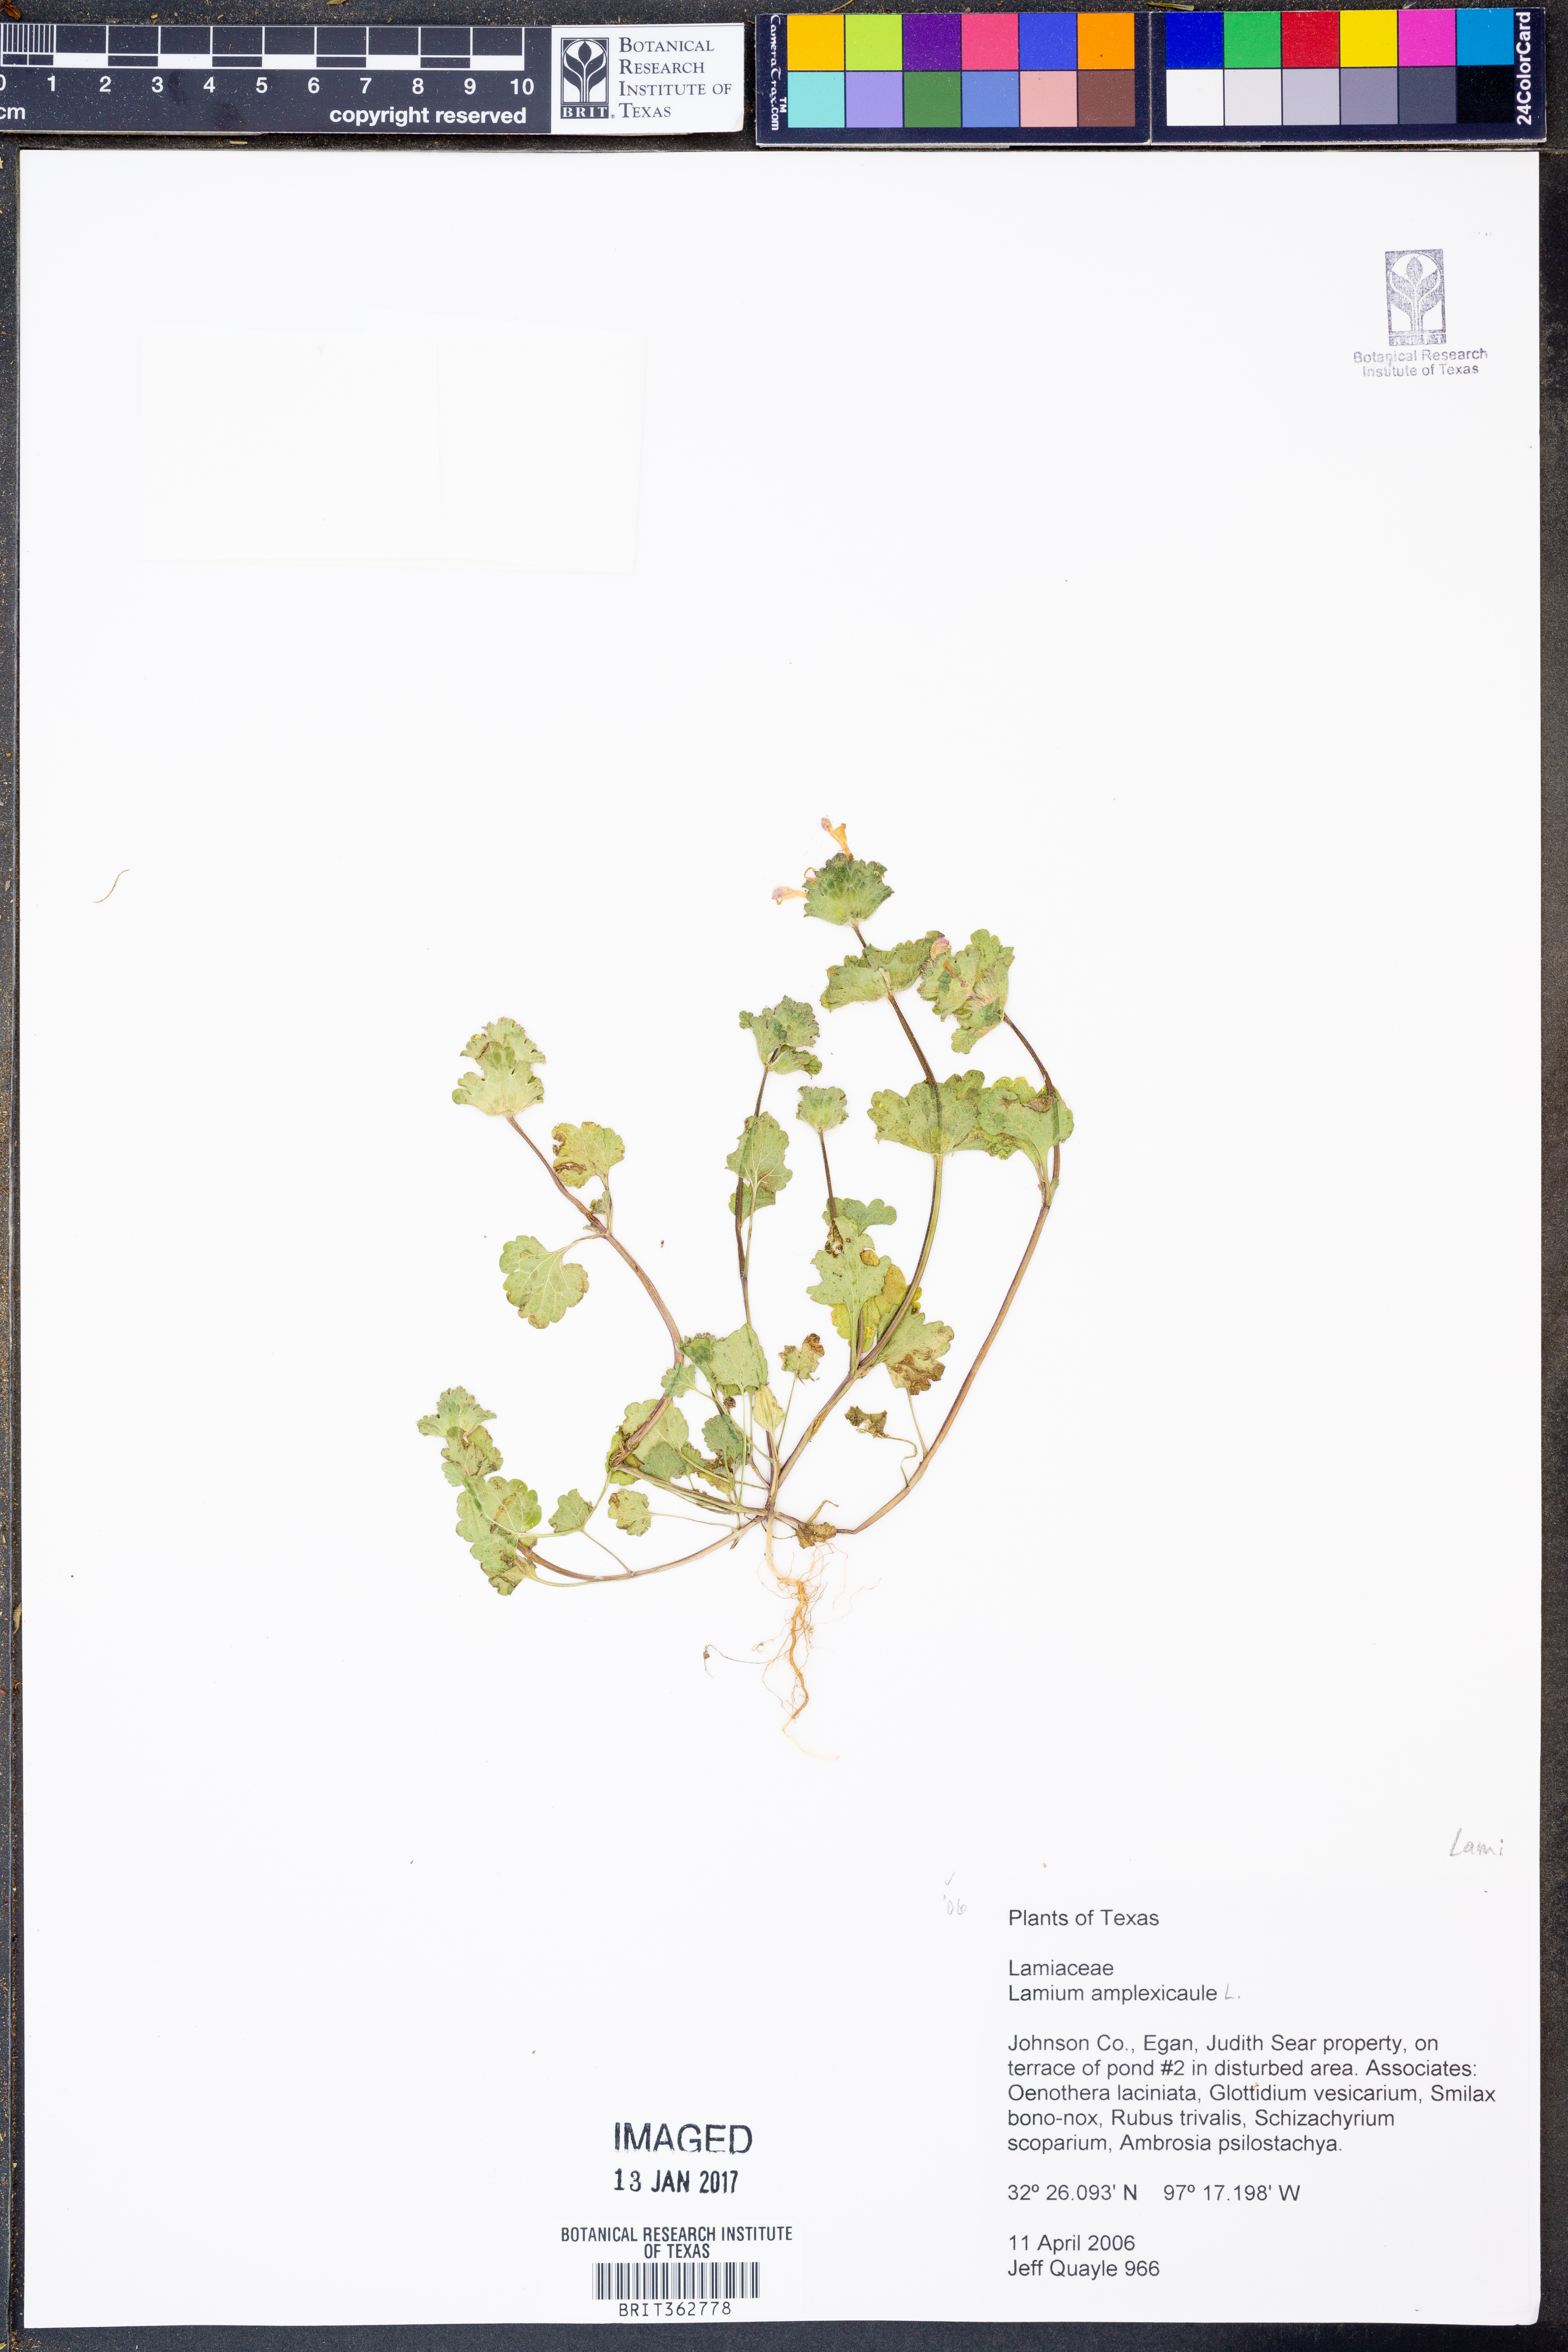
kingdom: Plantae
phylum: Tracheophyta
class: Magnoliopsida
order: Lamiales
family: Lamiaceae
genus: Lamium
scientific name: Lamium amplexicaule
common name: Henbit dead-nettle
